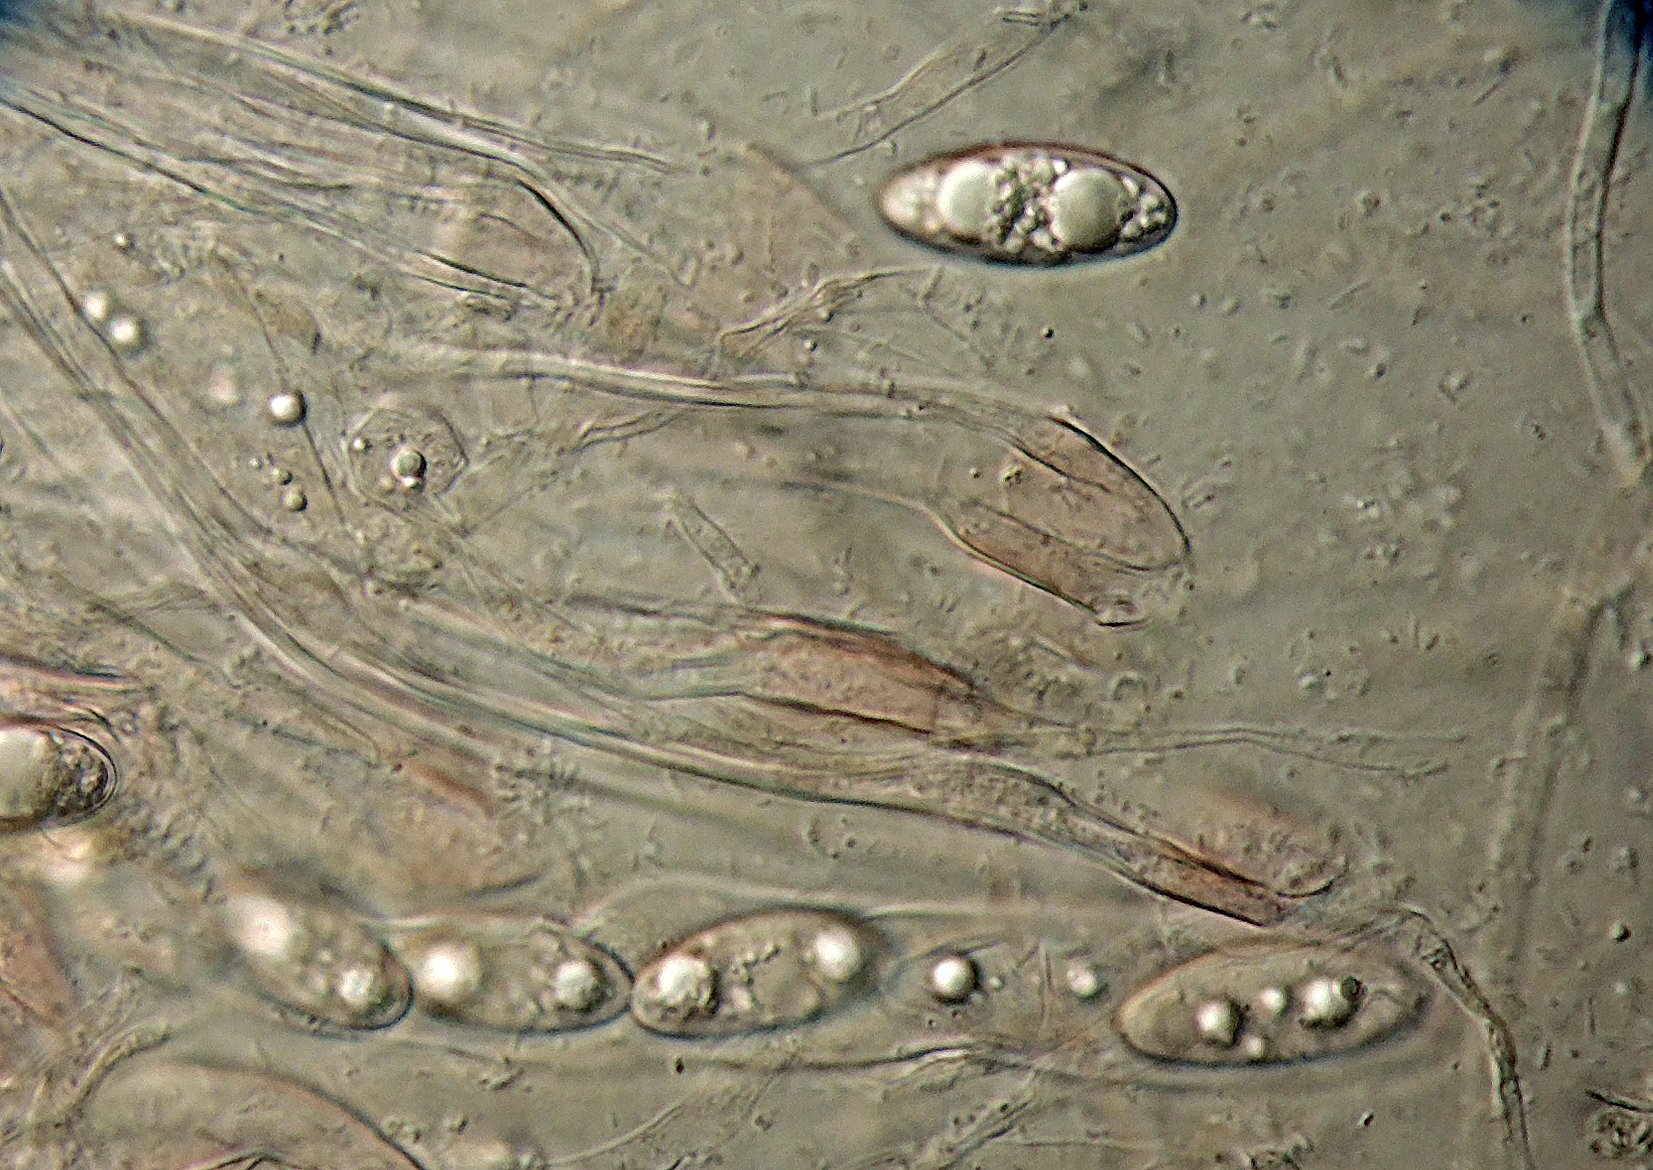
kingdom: Fungi
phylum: Ascomycota
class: Pezizomycetes
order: Pezizales
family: Pyronemataceae
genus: Sepultariella
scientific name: Sepultariella
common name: børstebæger
